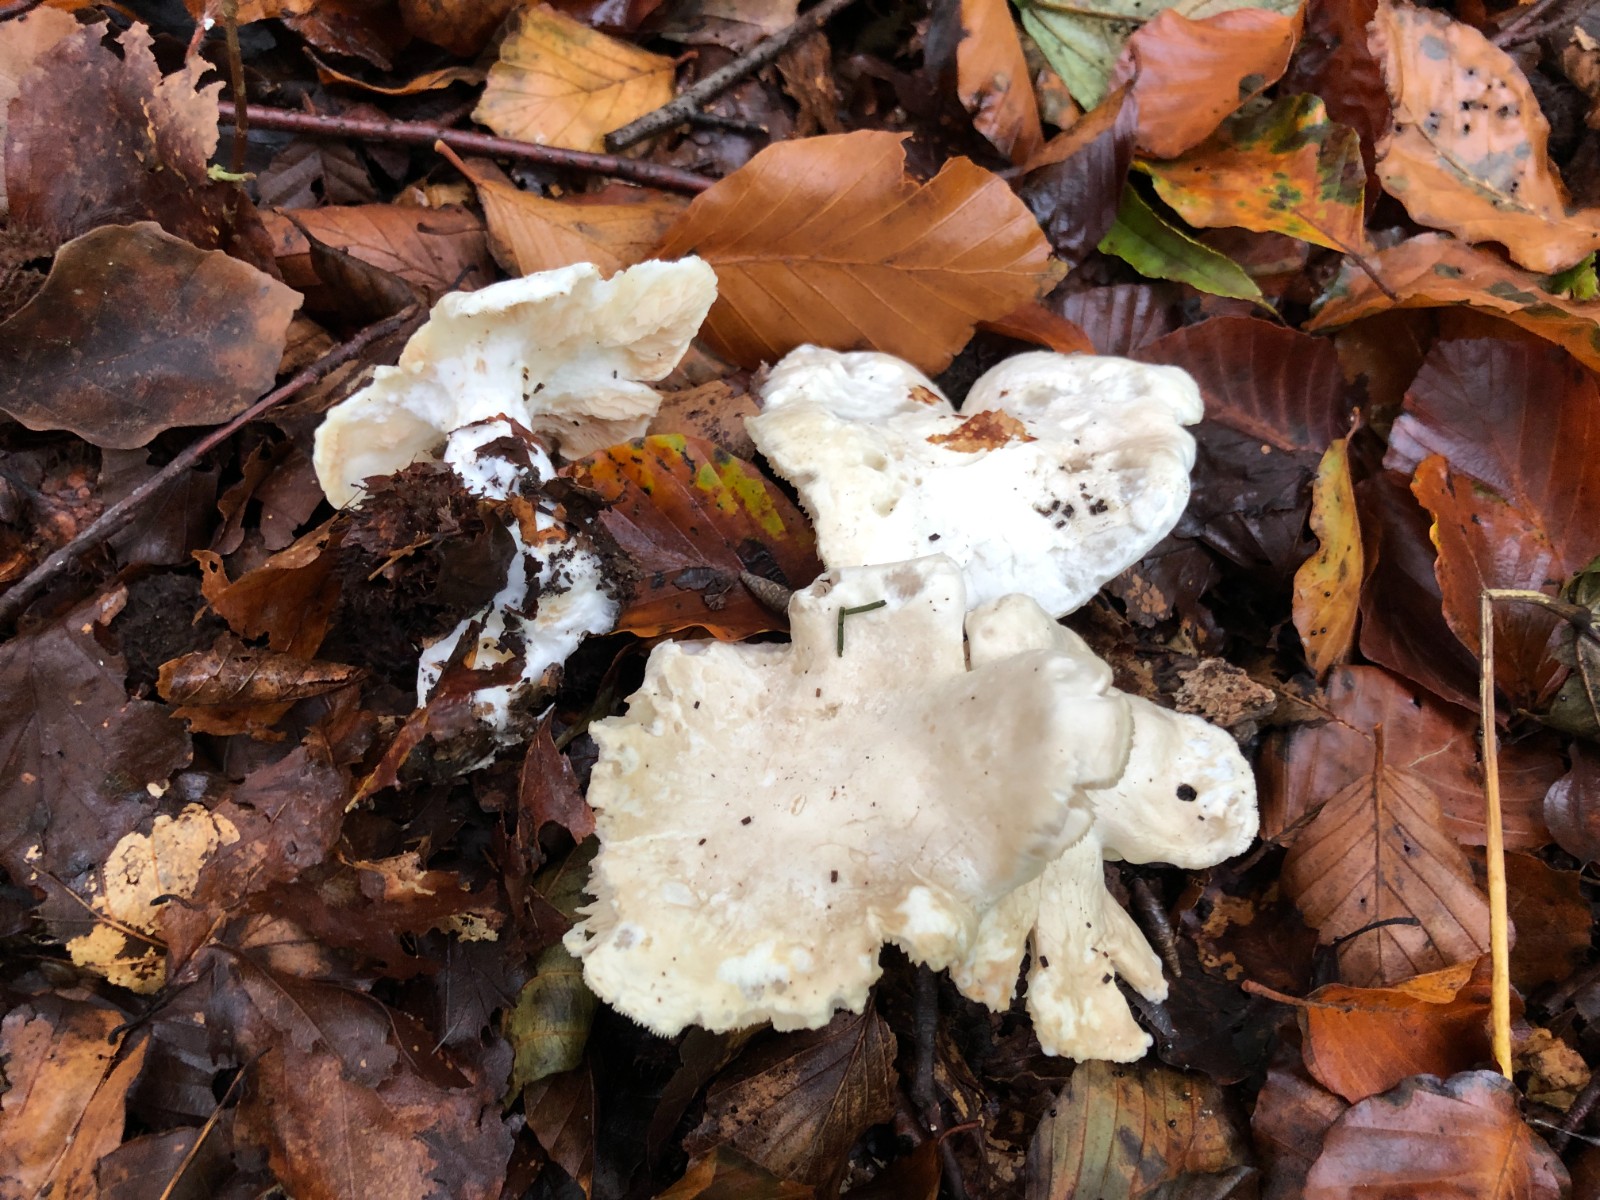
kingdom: Fungi
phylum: Basidiomycota
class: Agaricomycetes
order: Agaricales
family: Entolomataceae
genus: Clitopilus
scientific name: Clitopilus prunulus
